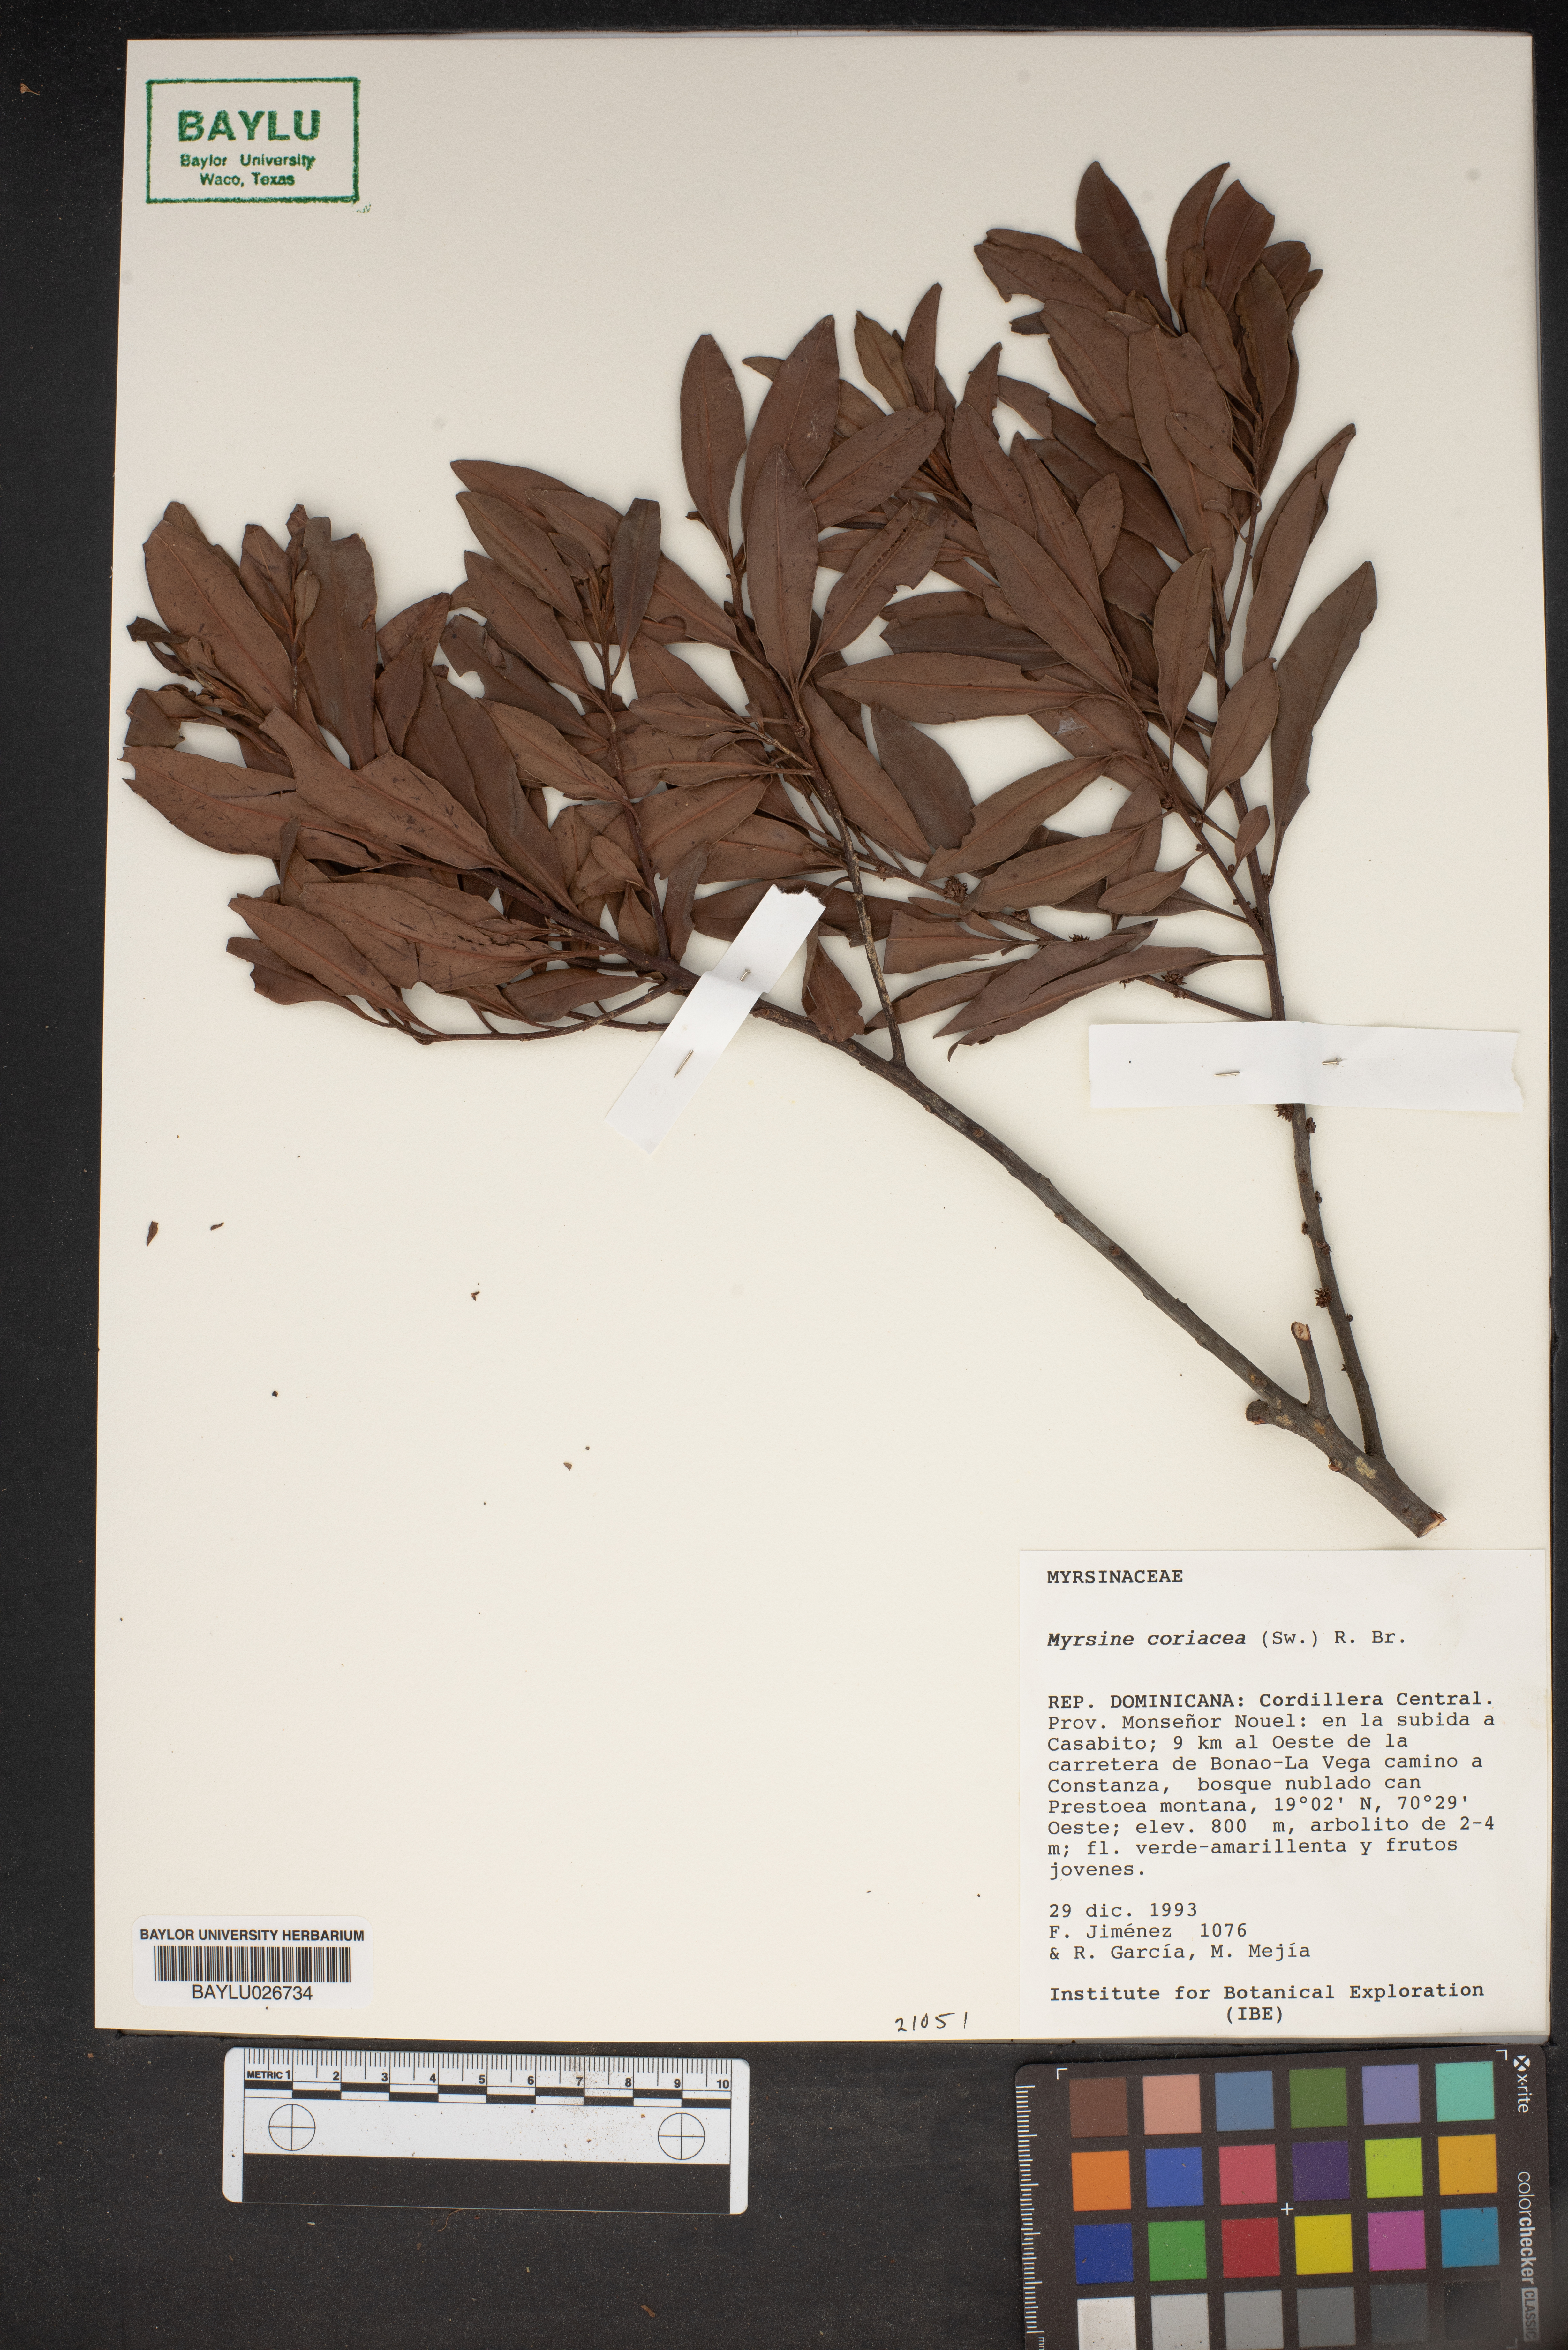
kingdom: Plantae
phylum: Tracheophyta
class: Magnoliopsida
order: Ericales
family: Primulaceae
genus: Myrsine
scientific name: Myrsine coriacea
